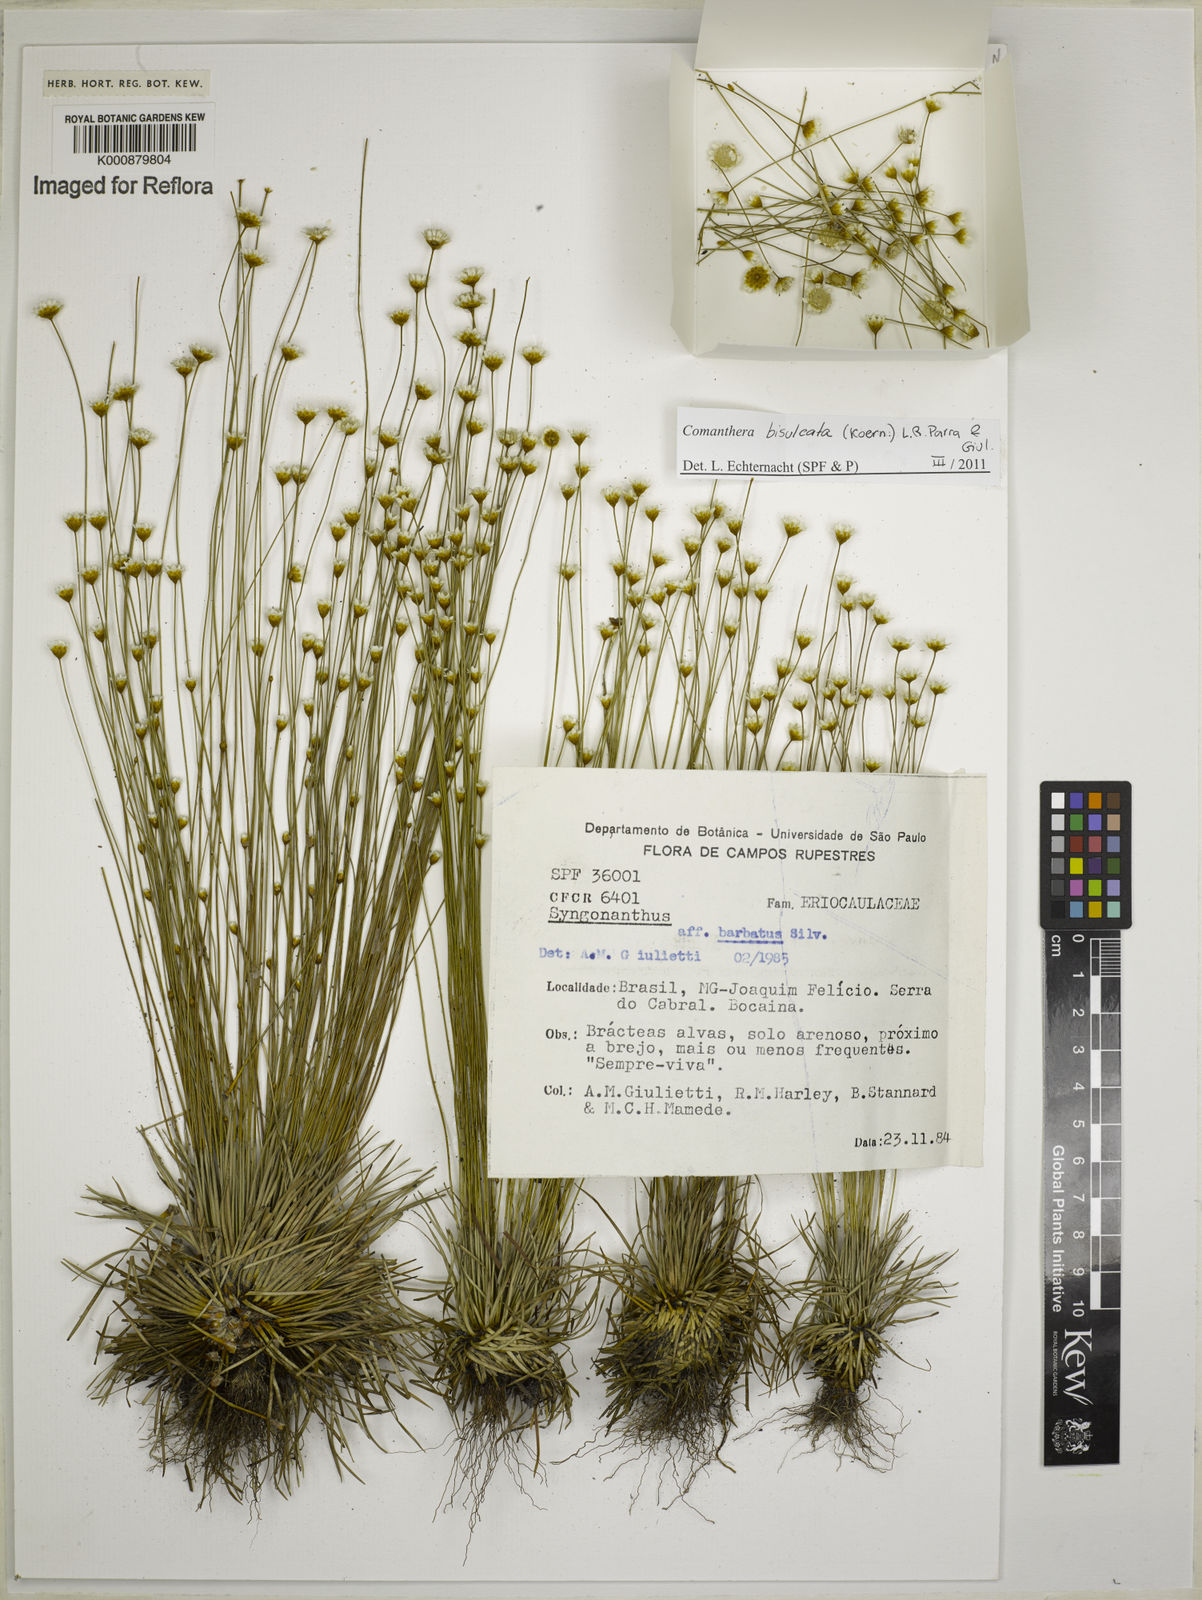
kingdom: Plantae
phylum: Tracheophyta
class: Liliopsida
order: Poales
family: Eriocaulaceae
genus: Comanthera
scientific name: Comanthera
